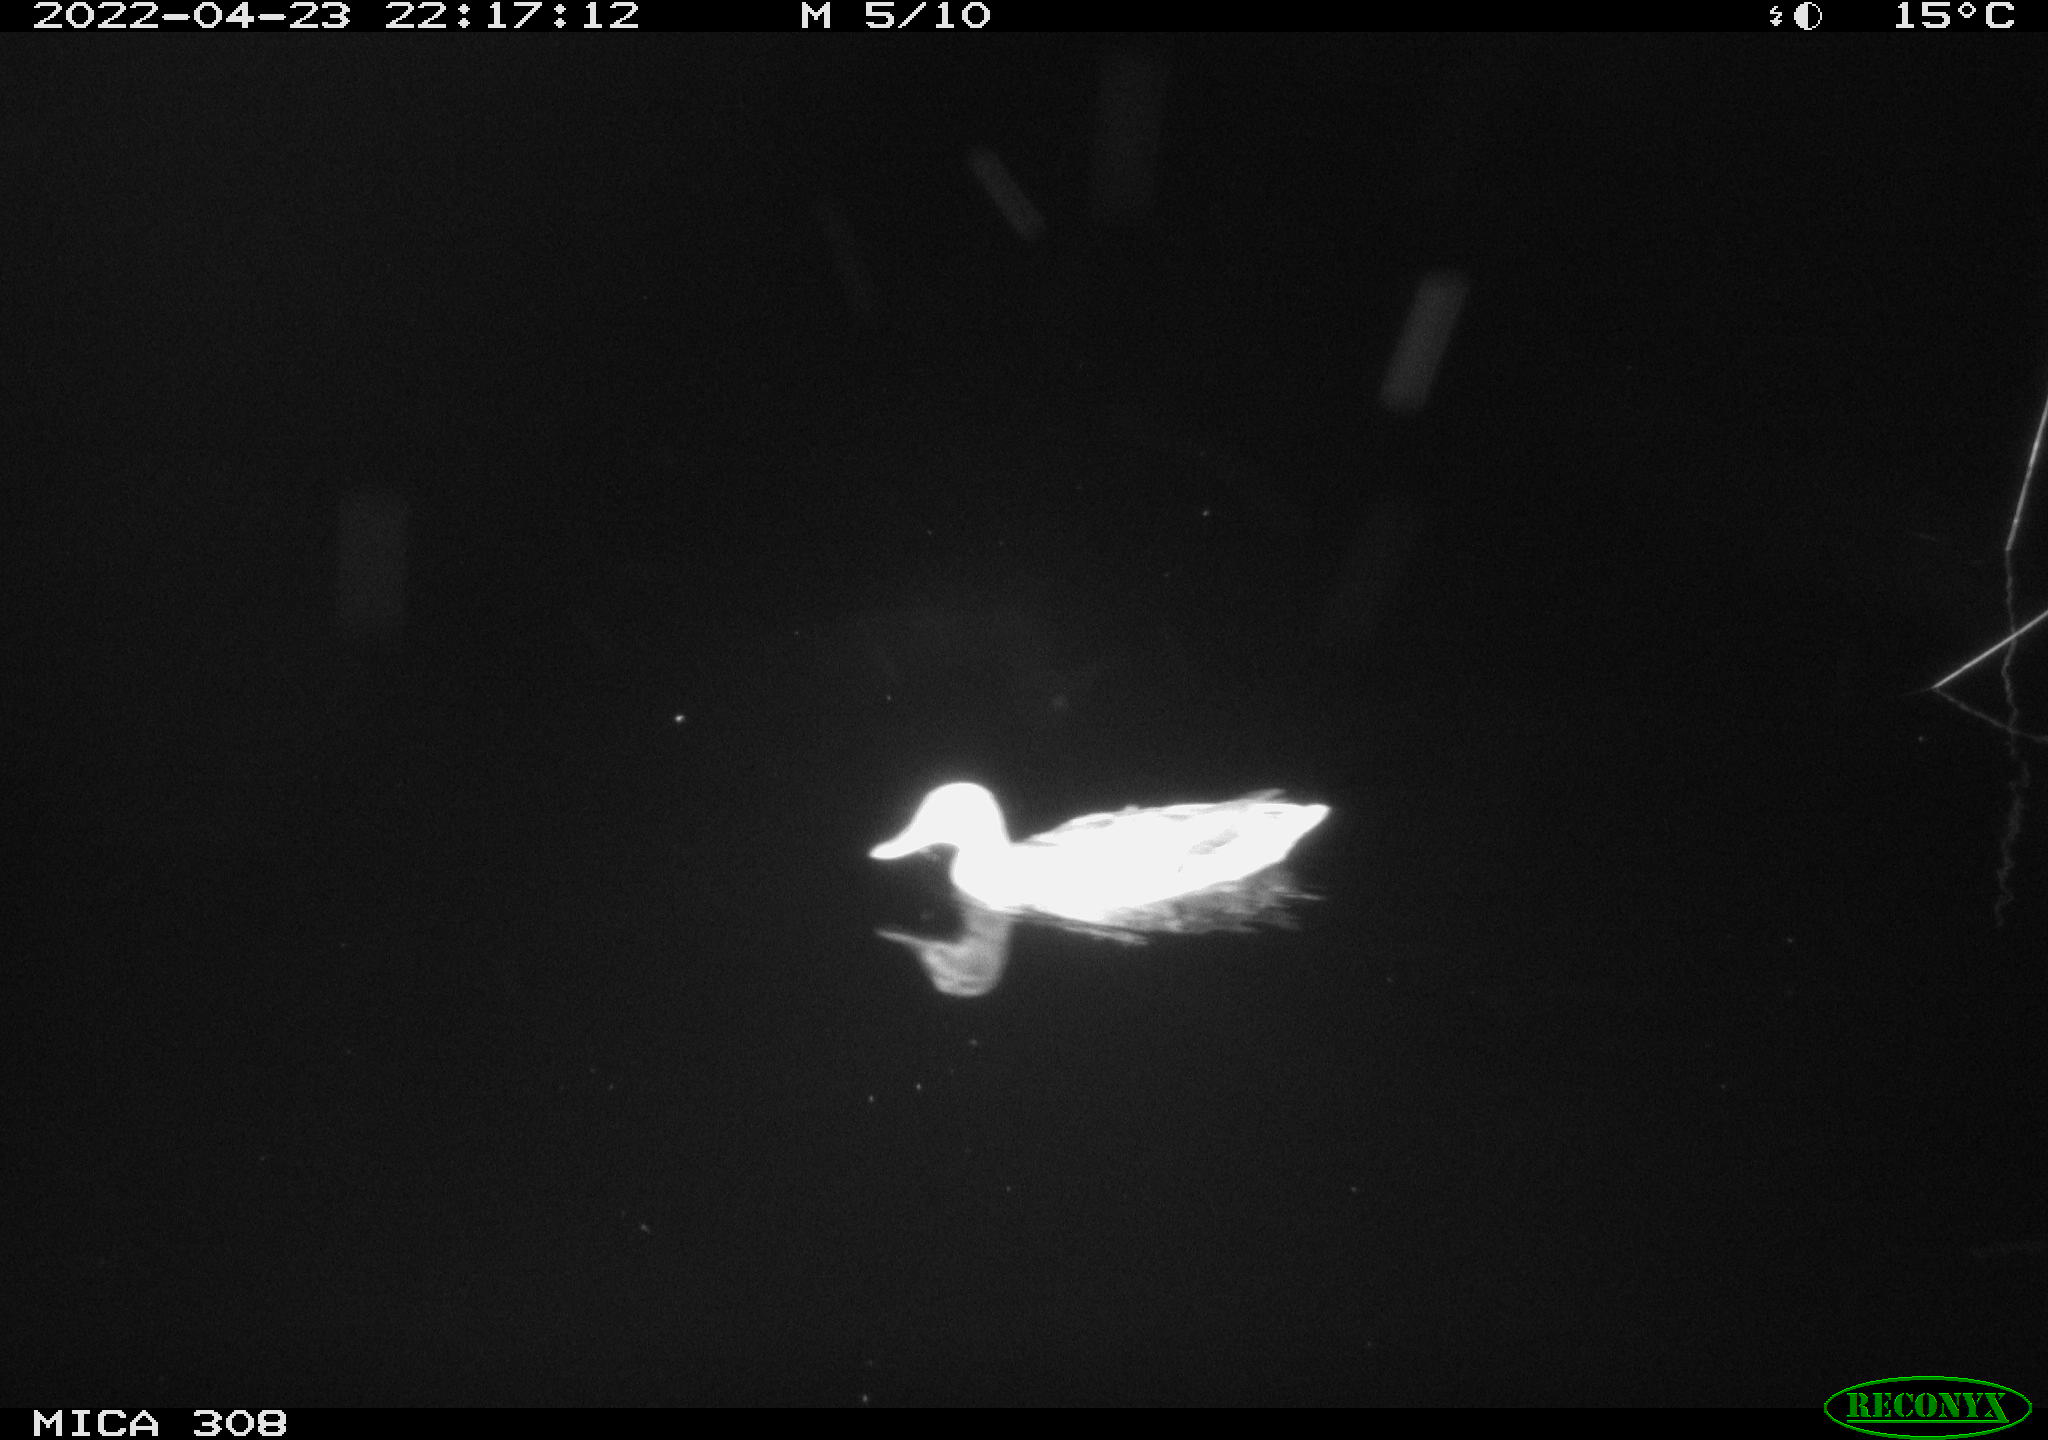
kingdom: Animalia
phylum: Chordata
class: Aves
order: Anseriformes
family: Anatidae
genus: Anas
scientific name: Anas platyrhynchos
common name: Mallard
